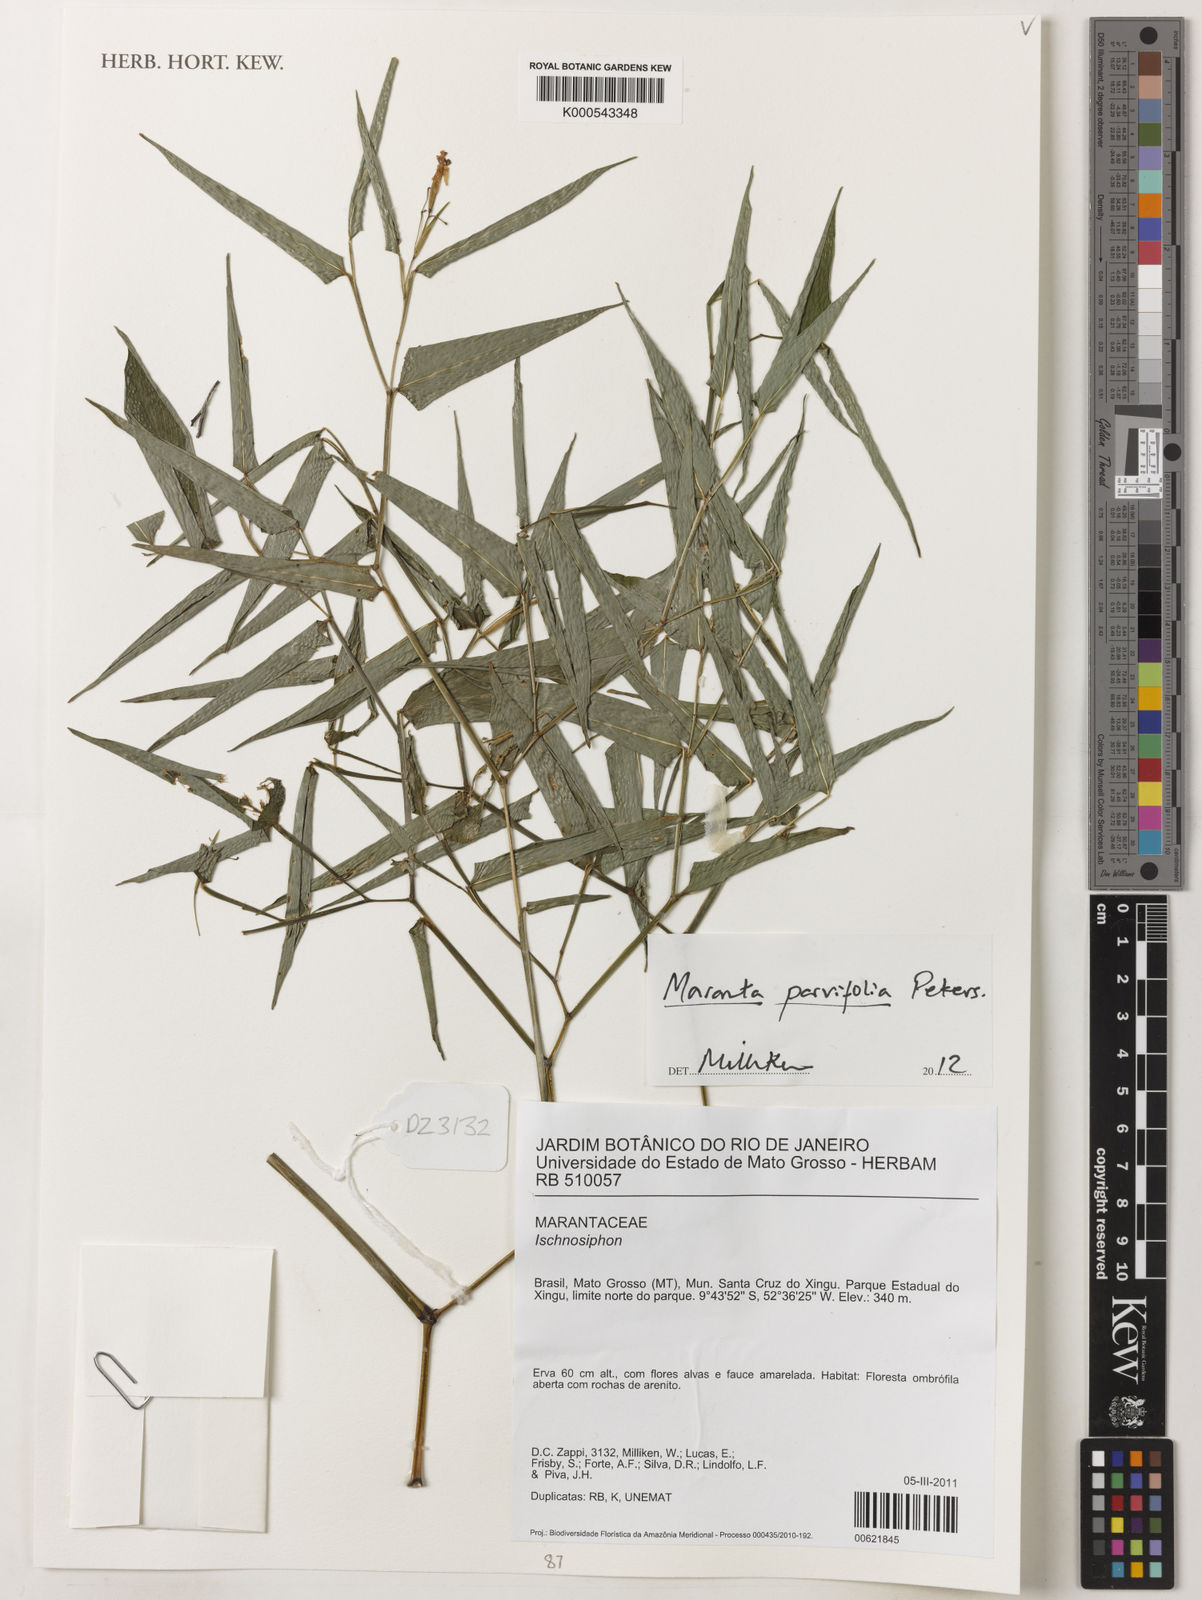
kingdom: Plantae
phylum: Tracheophyta
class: Liliopsida
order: Zingiberales
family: Marantaceae
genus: Maranta
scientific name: Maranta parvifolia
